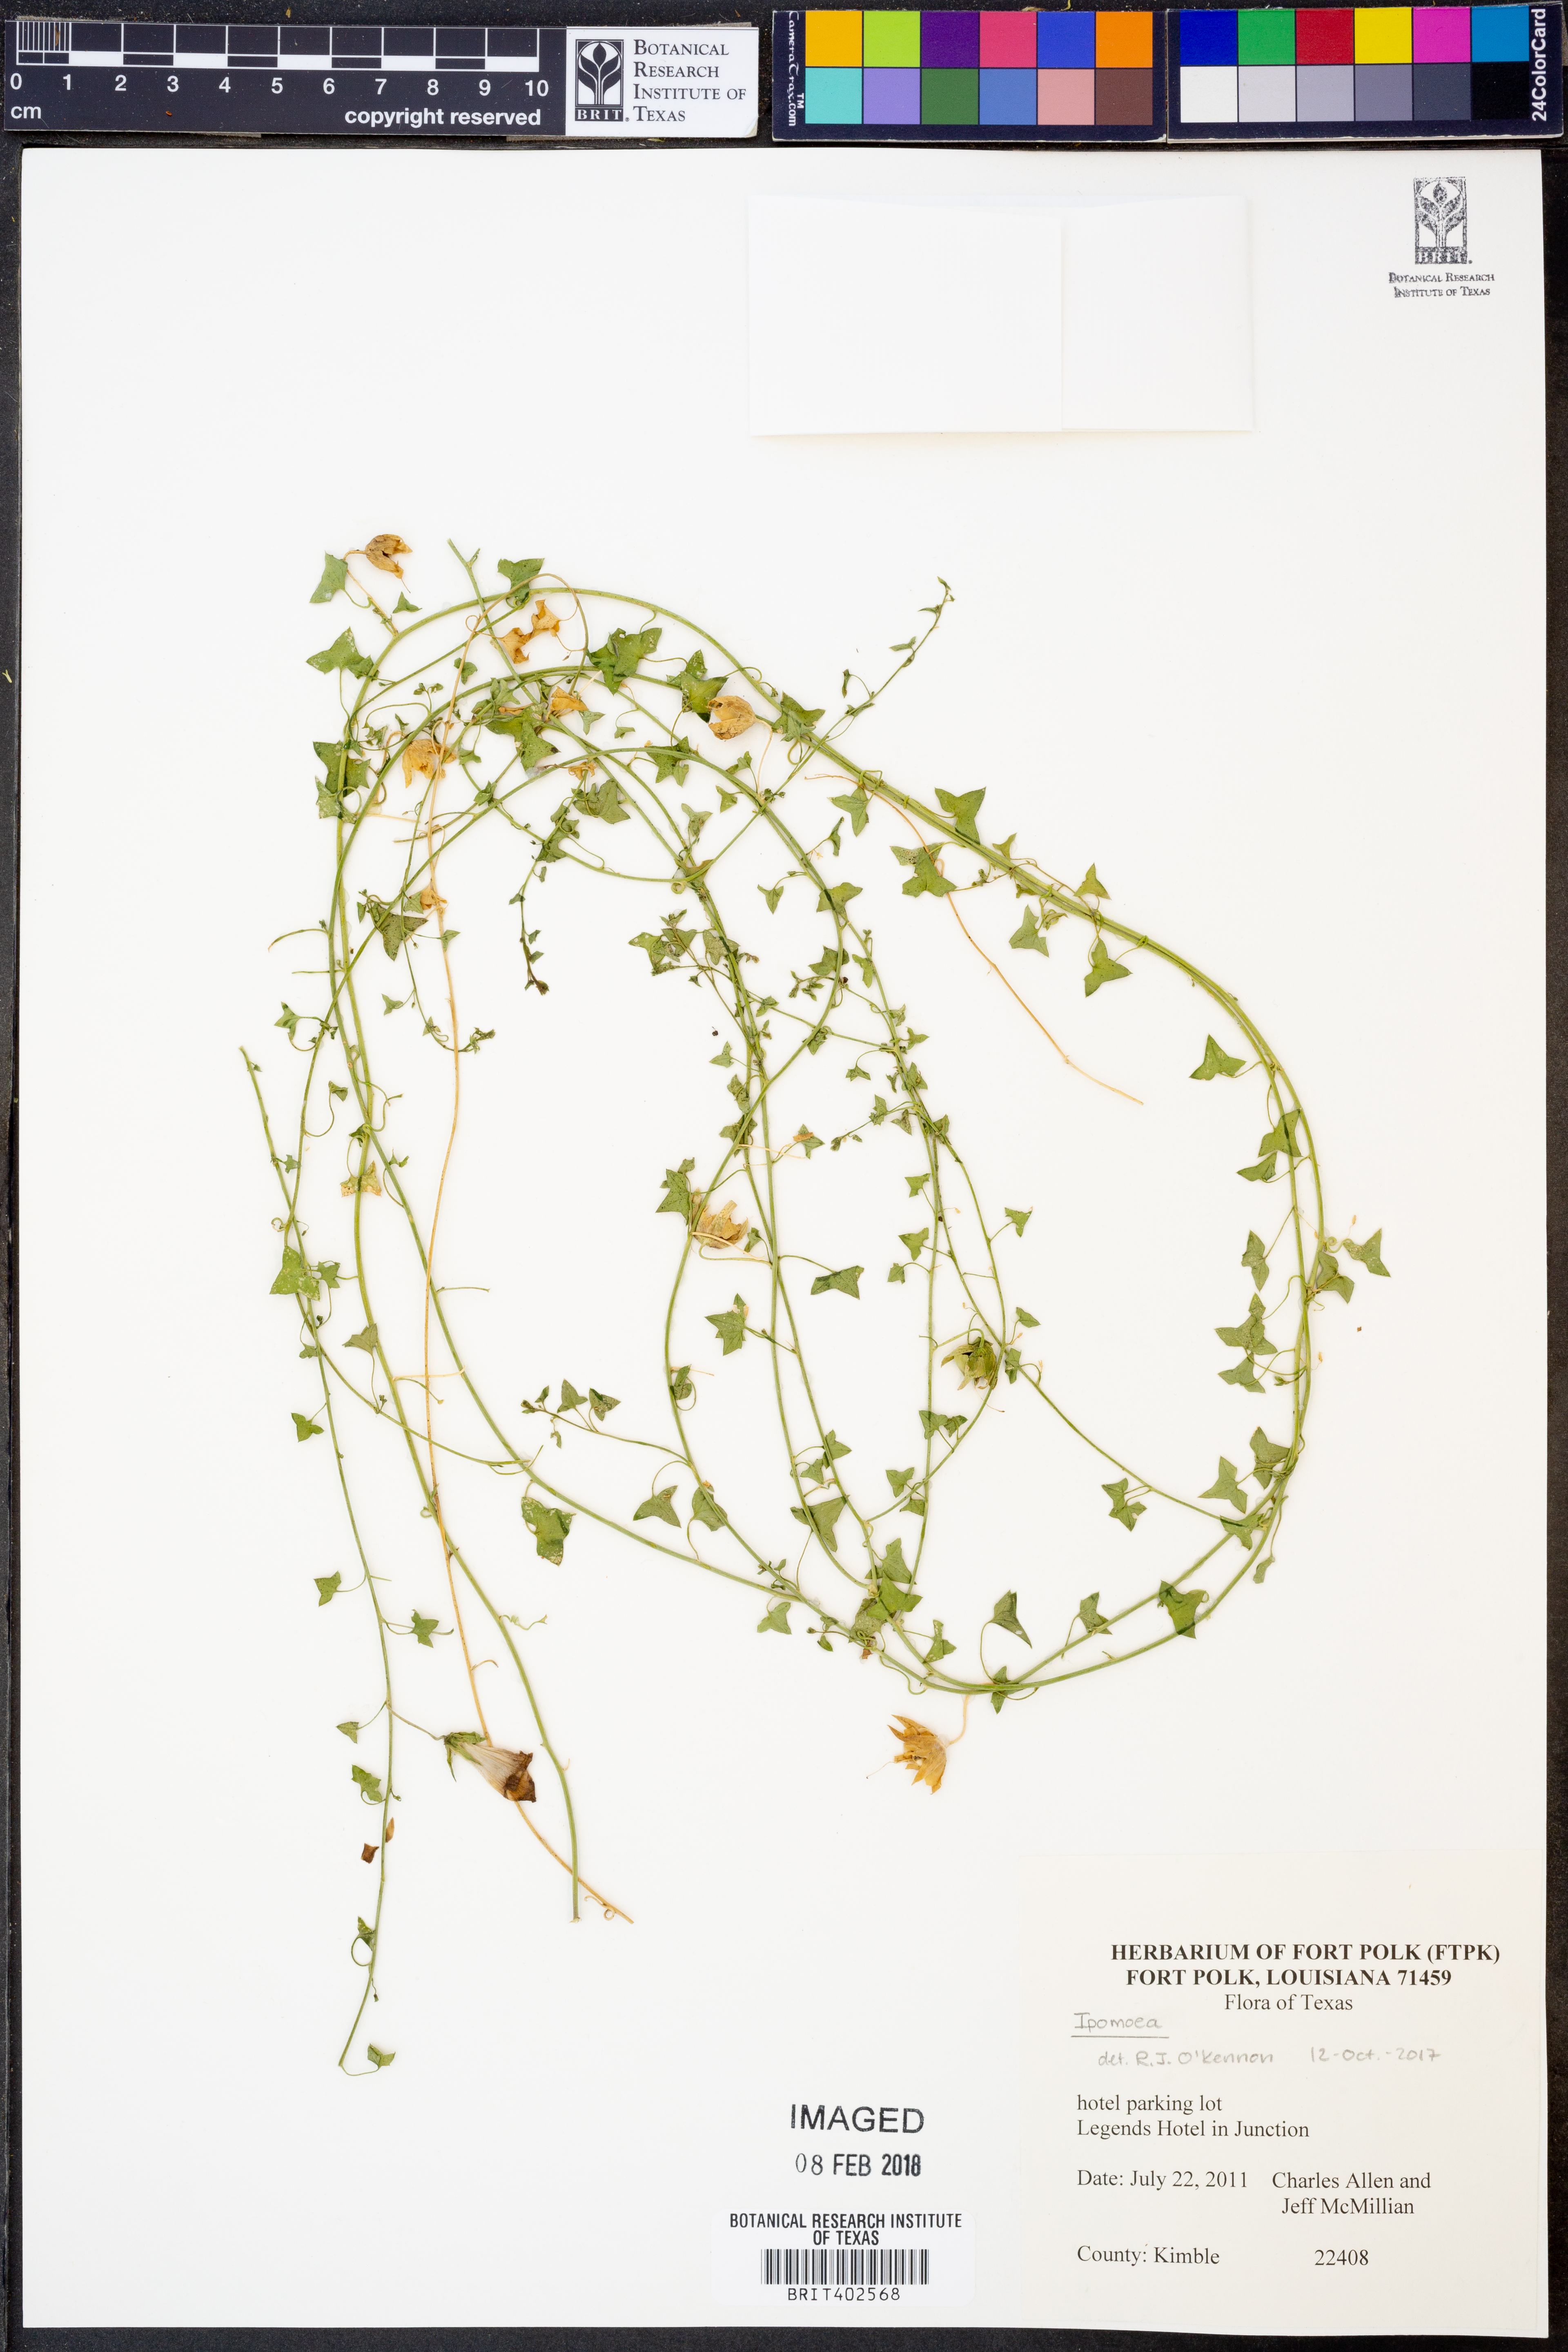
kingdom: Plantae
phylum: Tracheophyta
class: Magnoliopsida
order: Solanales
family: Convolvulaceae
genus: Ipomoea
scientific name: Ipomoea
